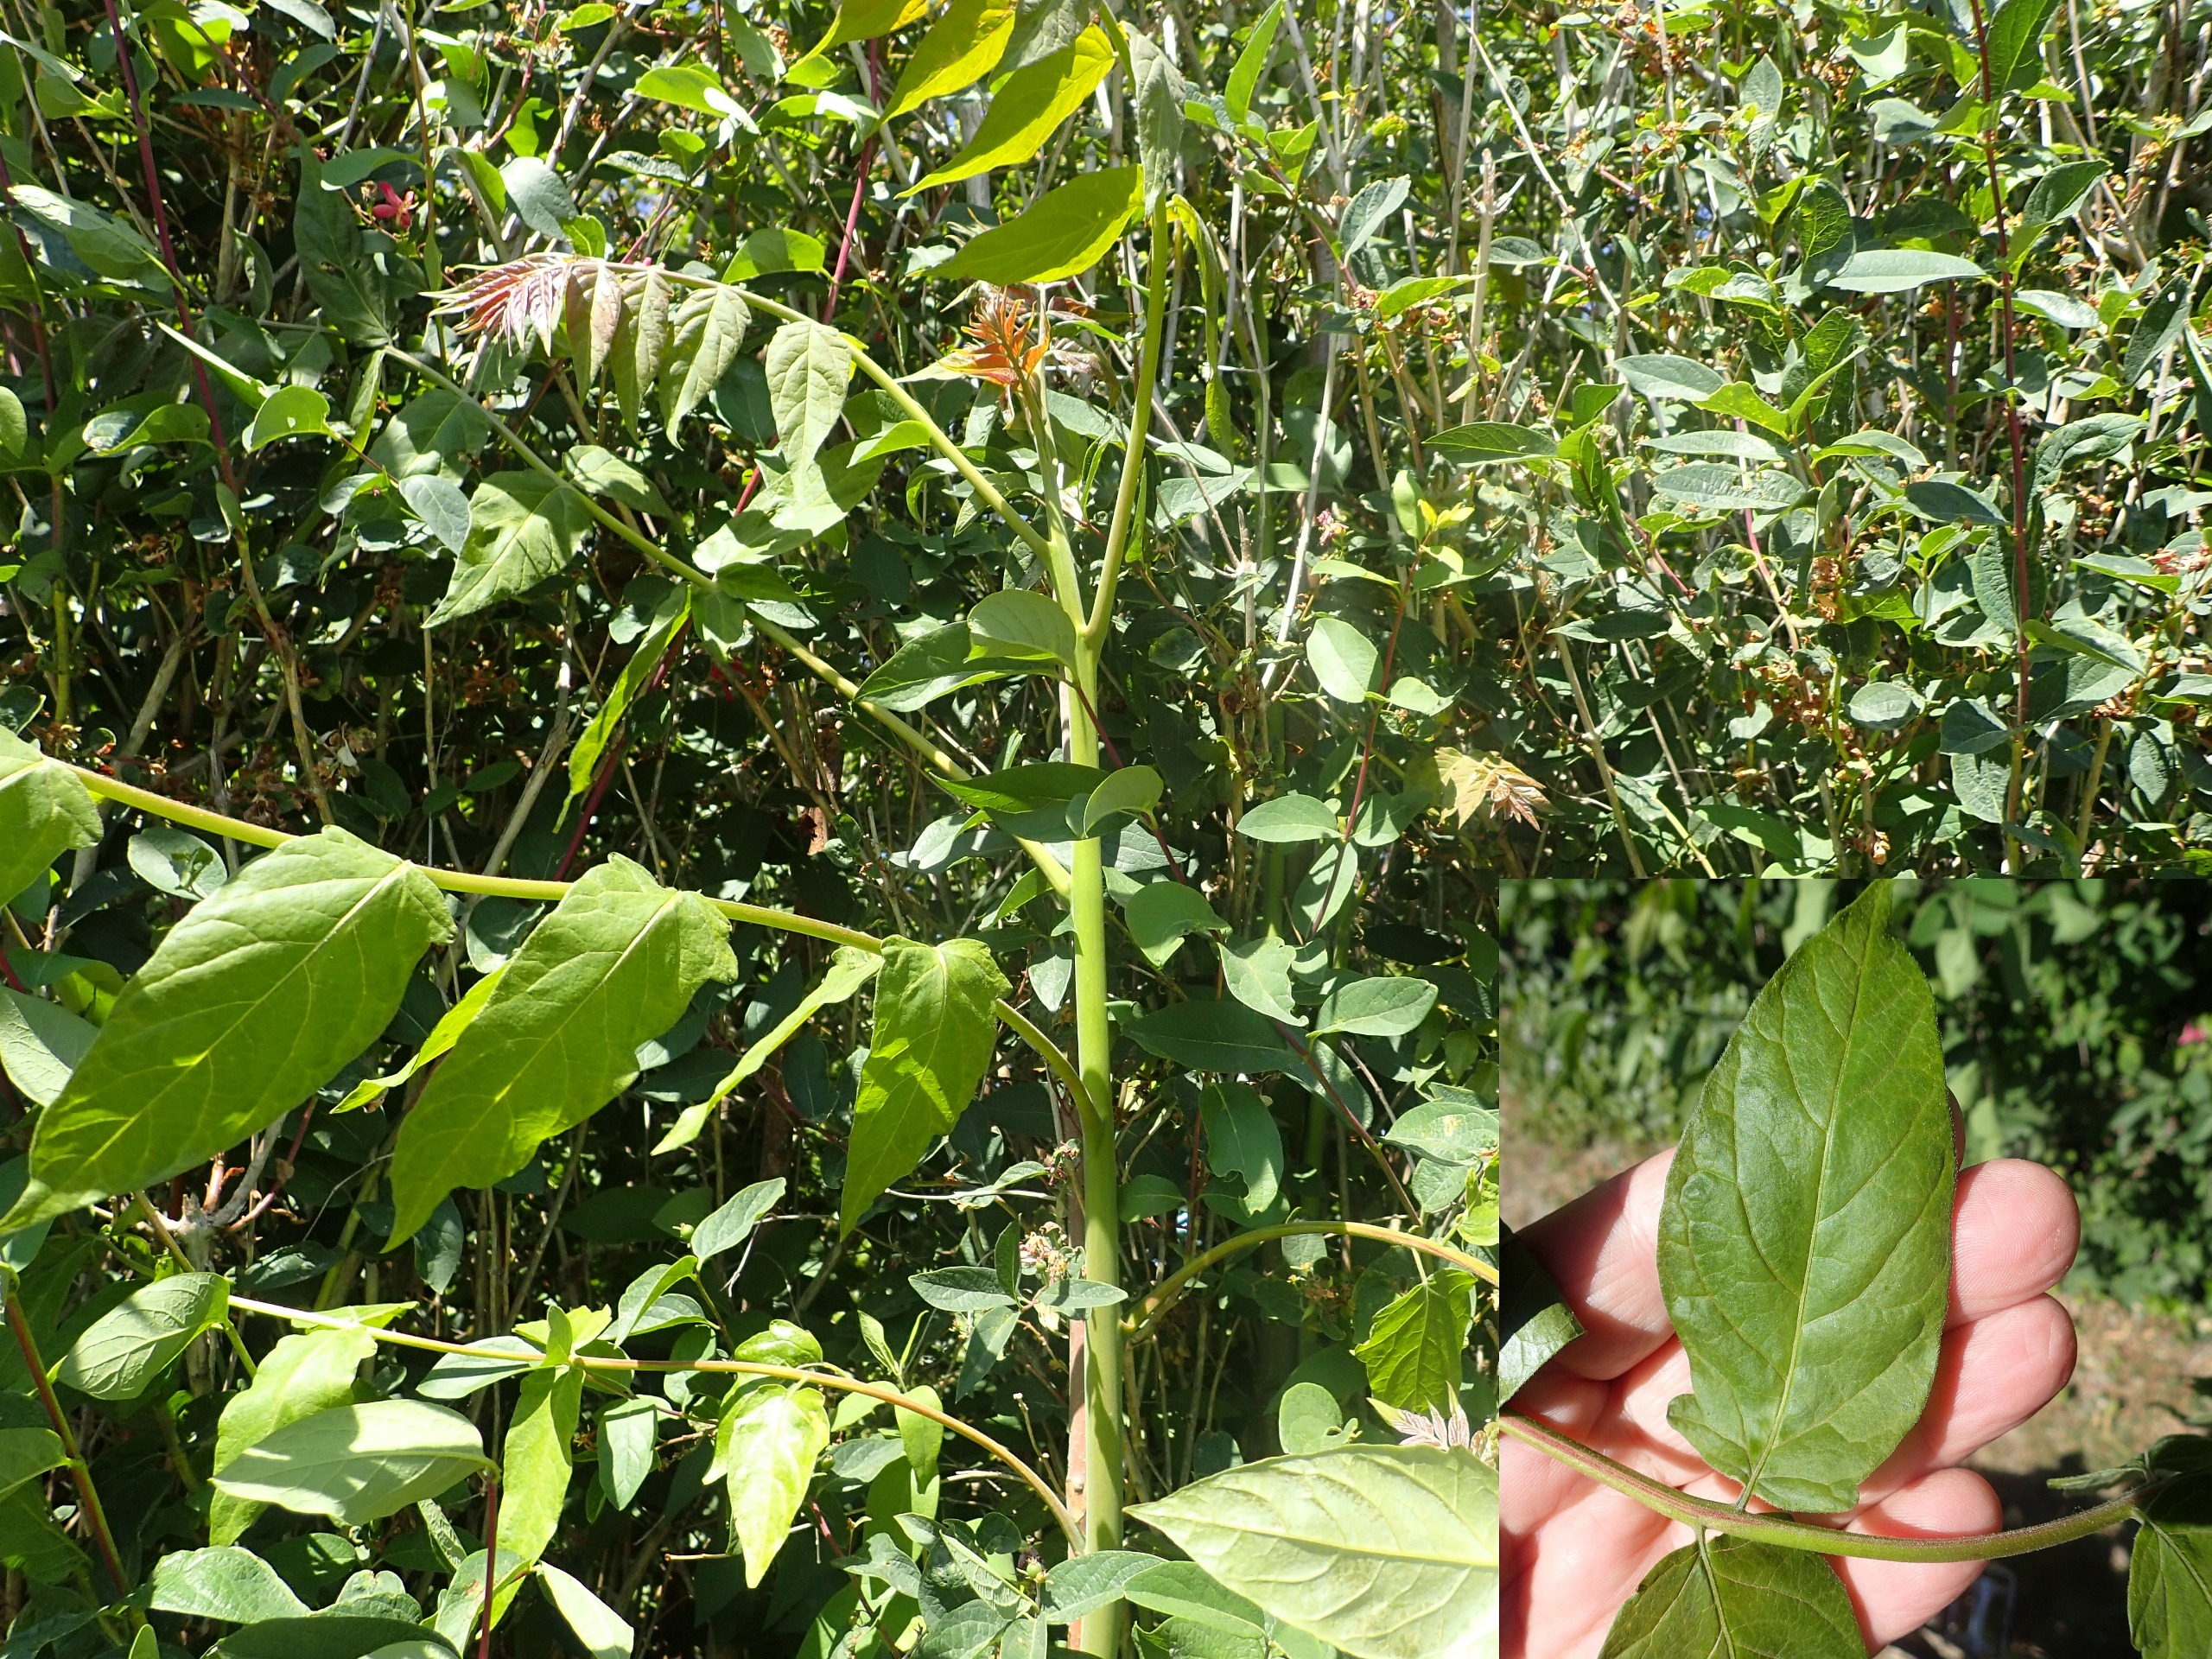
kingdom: Plantae
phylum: Tracheophyta
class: Magnoliopsida
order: Sapindales
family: Simaroubaceae
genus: Ailanthus
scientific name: Ailanthus altissima
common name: Skyrækker
